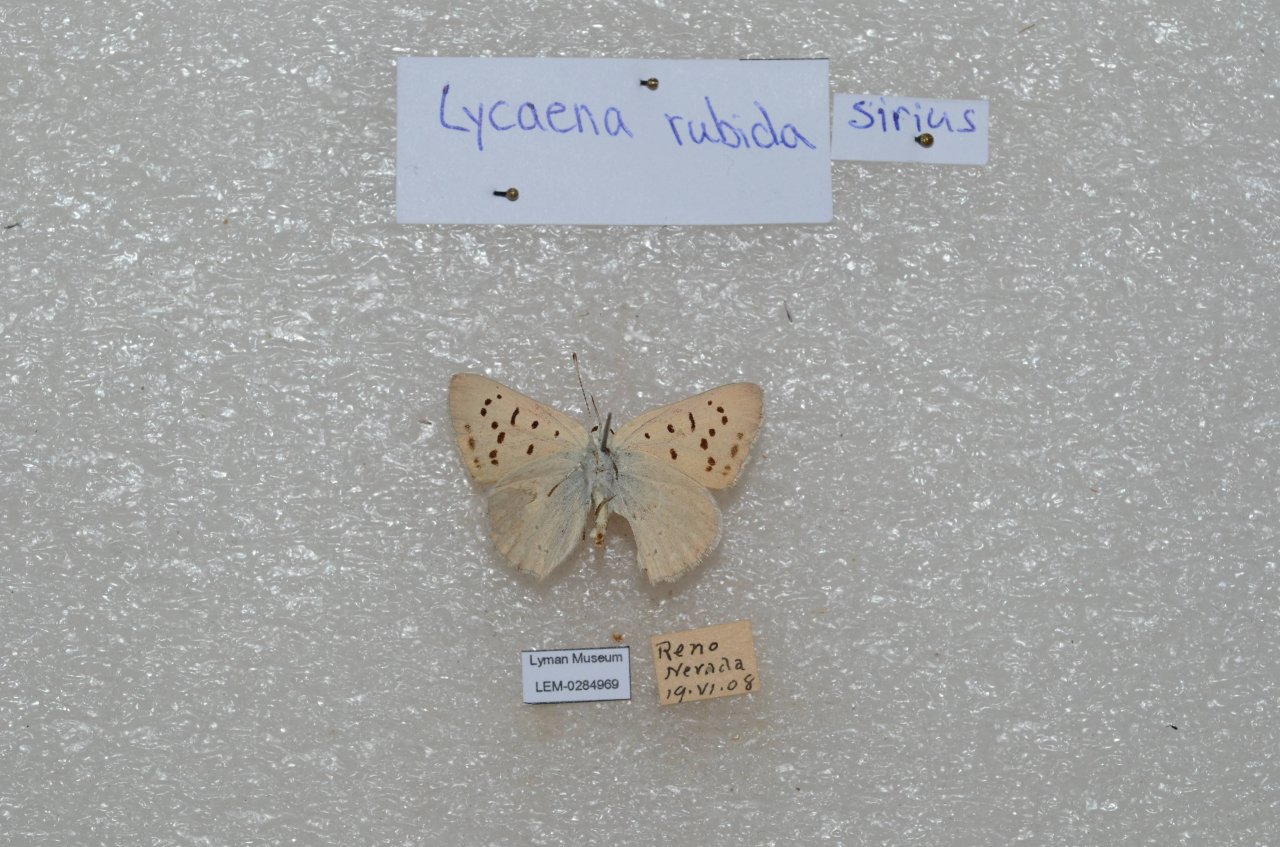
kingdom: Animalia
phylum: Arthropoda
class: Insecta
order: Lepidoptera
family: Sesiidae
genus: Sesia
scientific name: Sesia Lycaena rubidus
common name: Ruddy Copper
